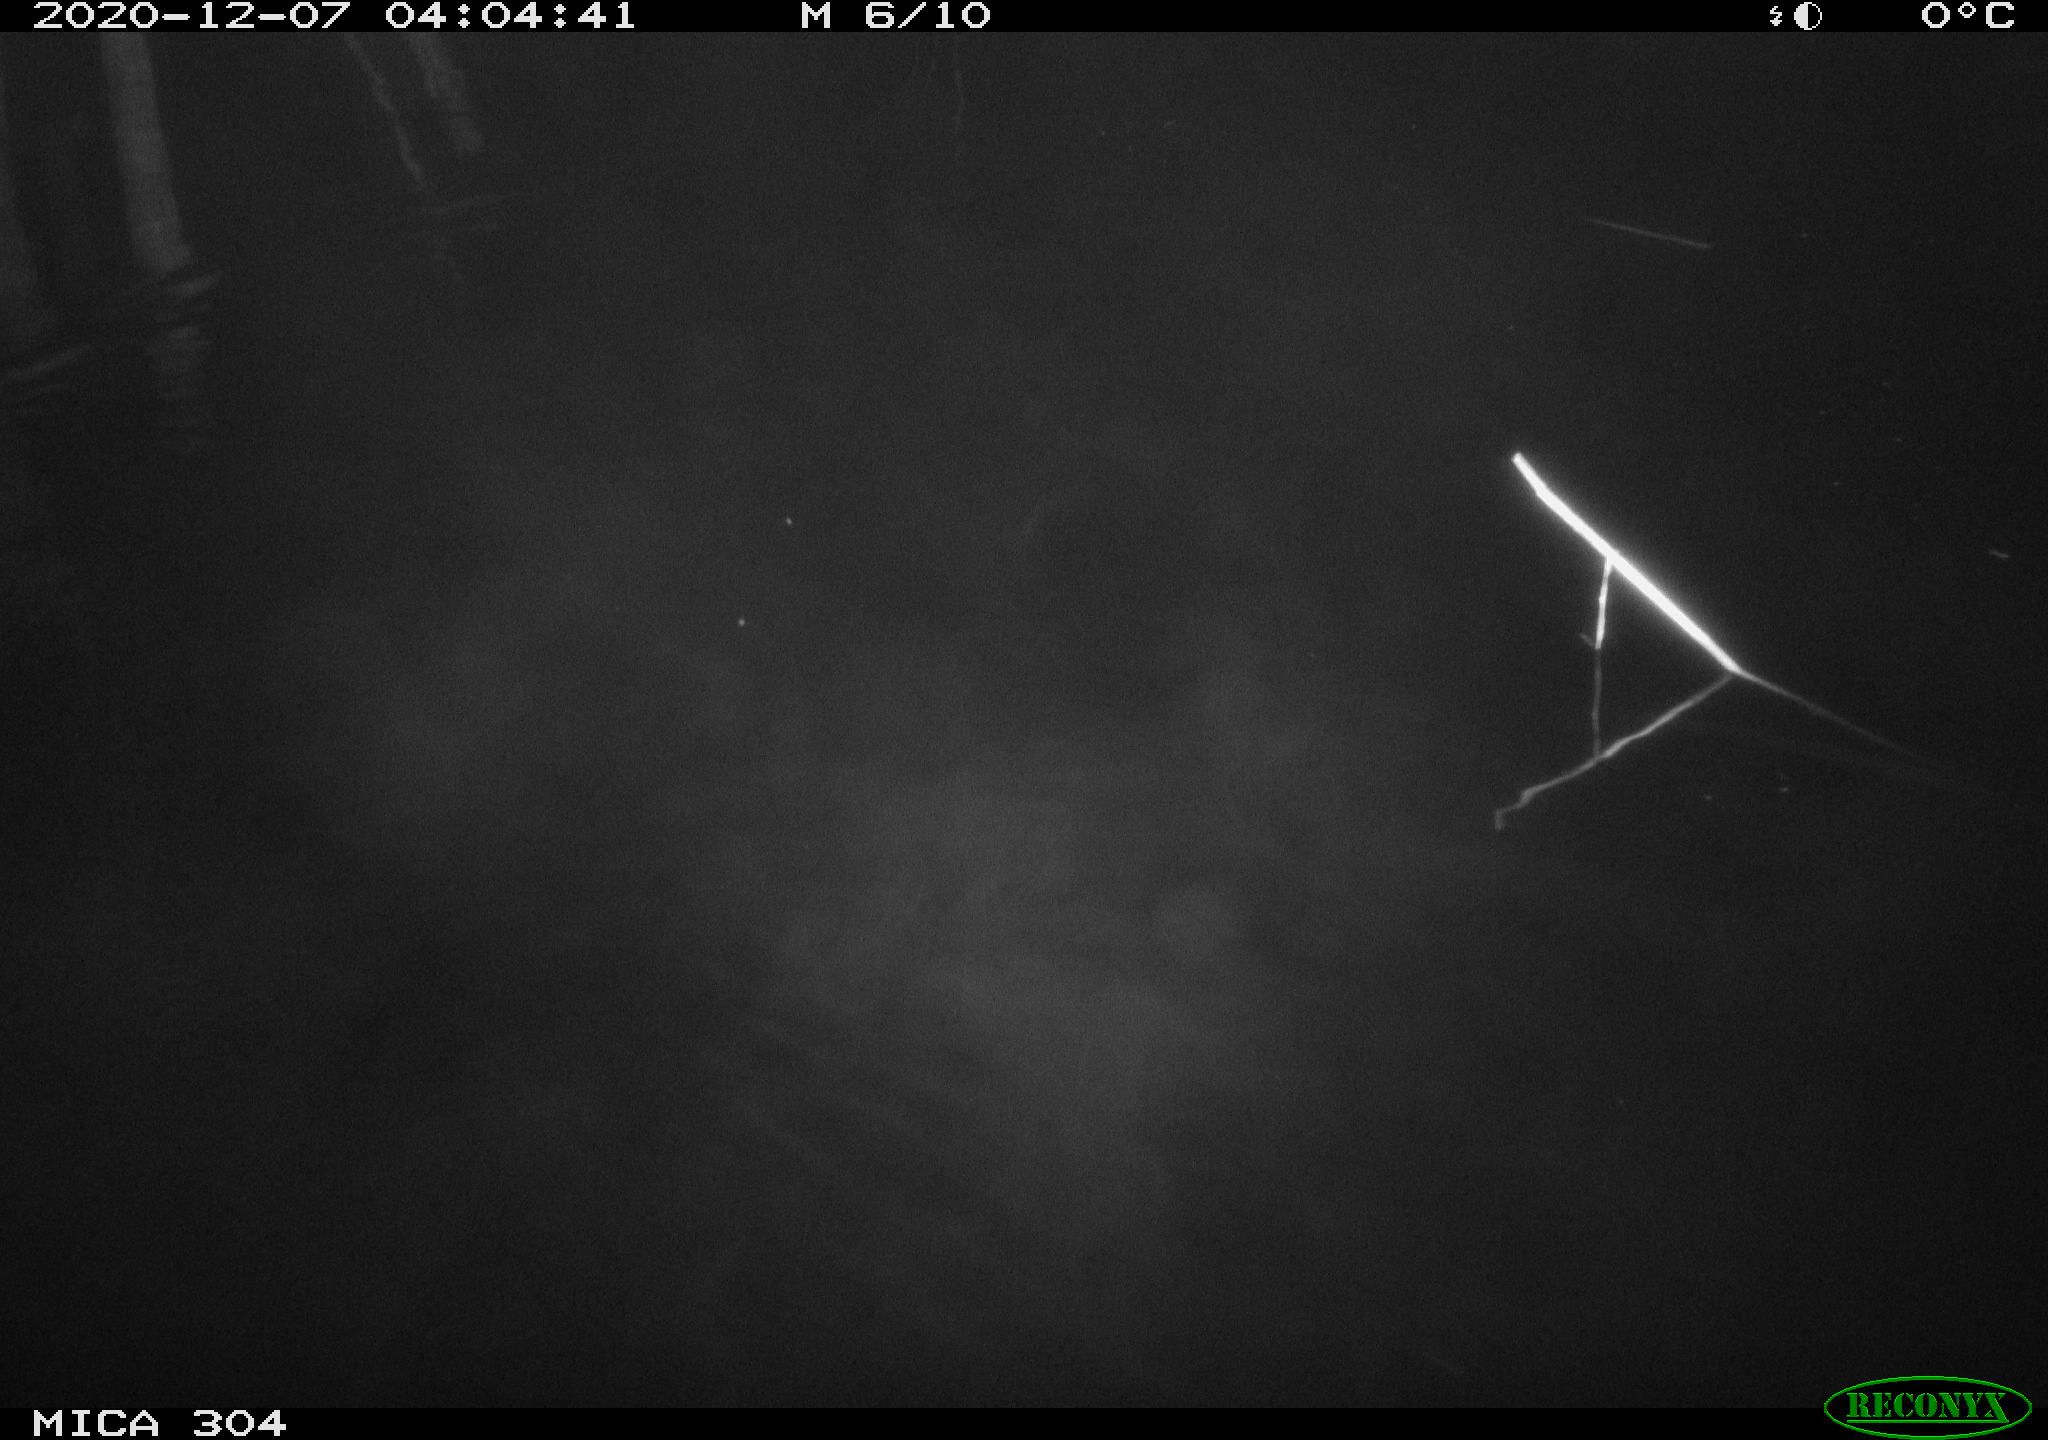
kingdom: Animalia
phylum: Chordata
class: Mammalia
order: Rodentia
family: Muridae
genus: Rattus
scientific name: Rattus norvegicus
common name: Brown rat
